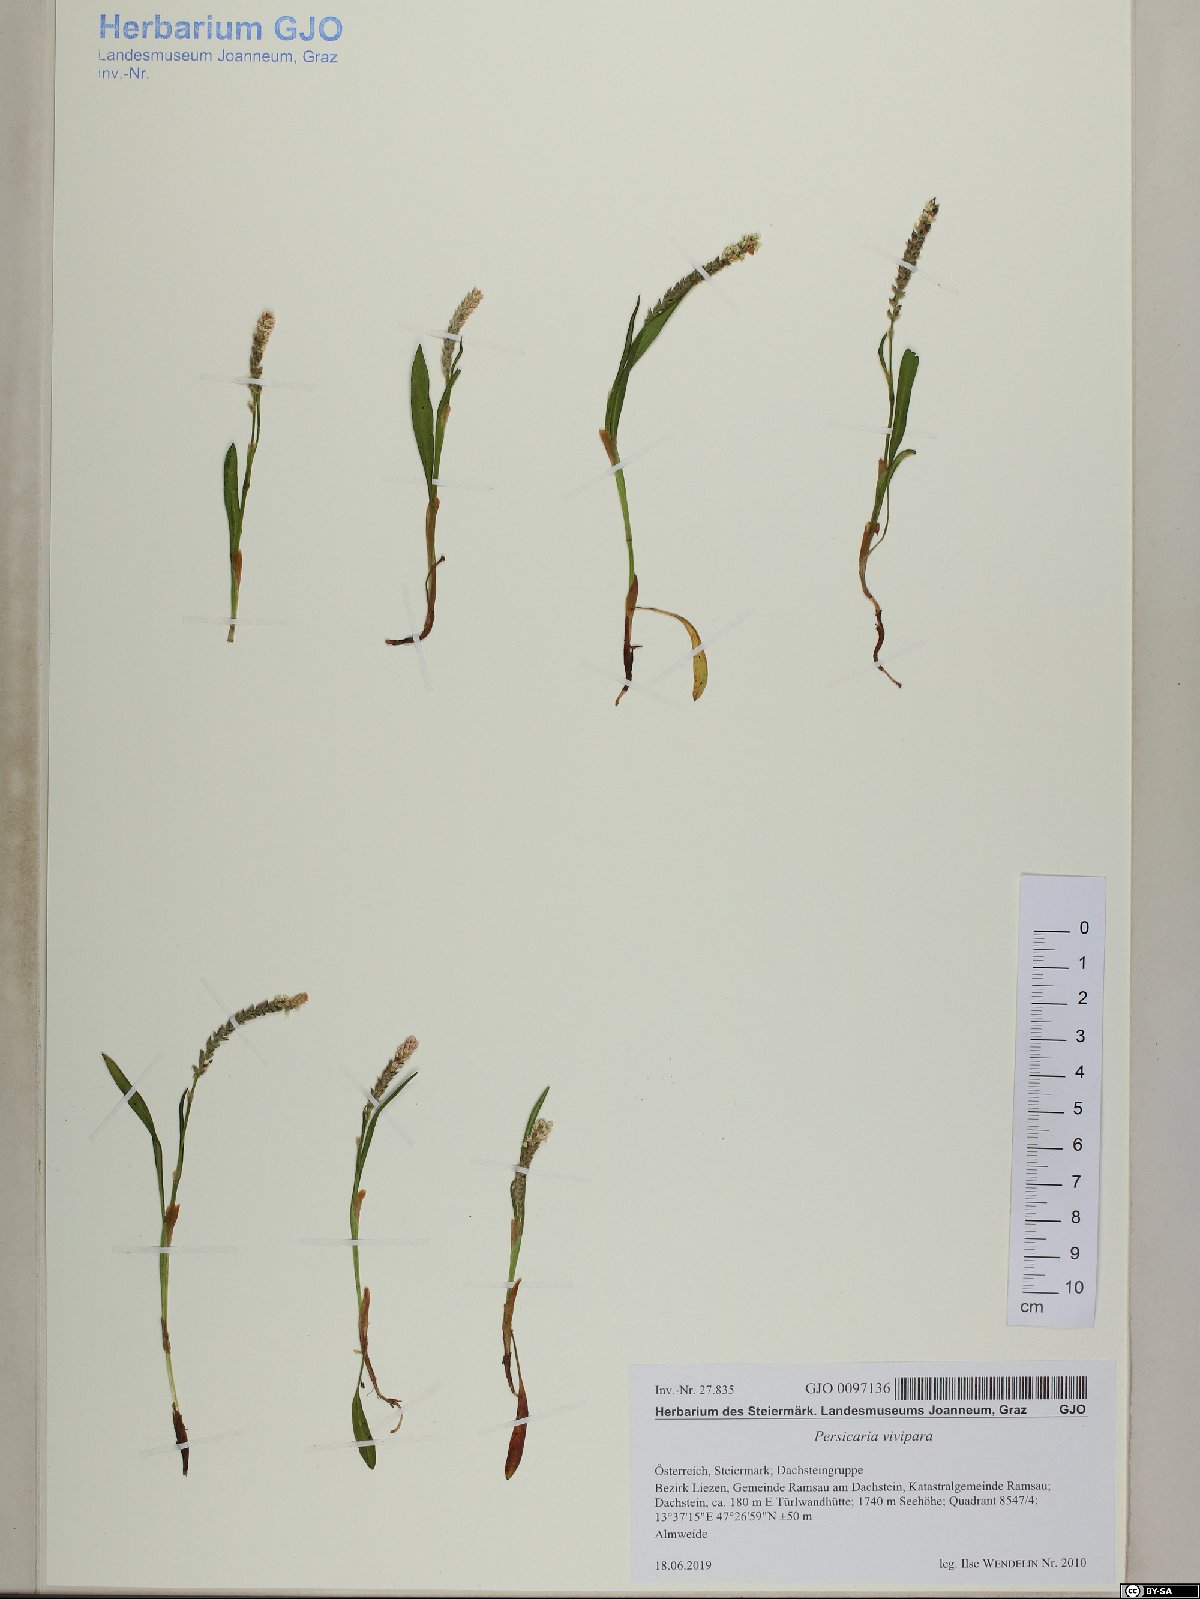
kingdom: Plantae
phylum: Tracheophyta
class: Magnoliopsida
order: Caryophyllales
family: Polygonaceae
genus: Bistorta
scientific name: Bistorta vivipara
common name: Alpine bistort
